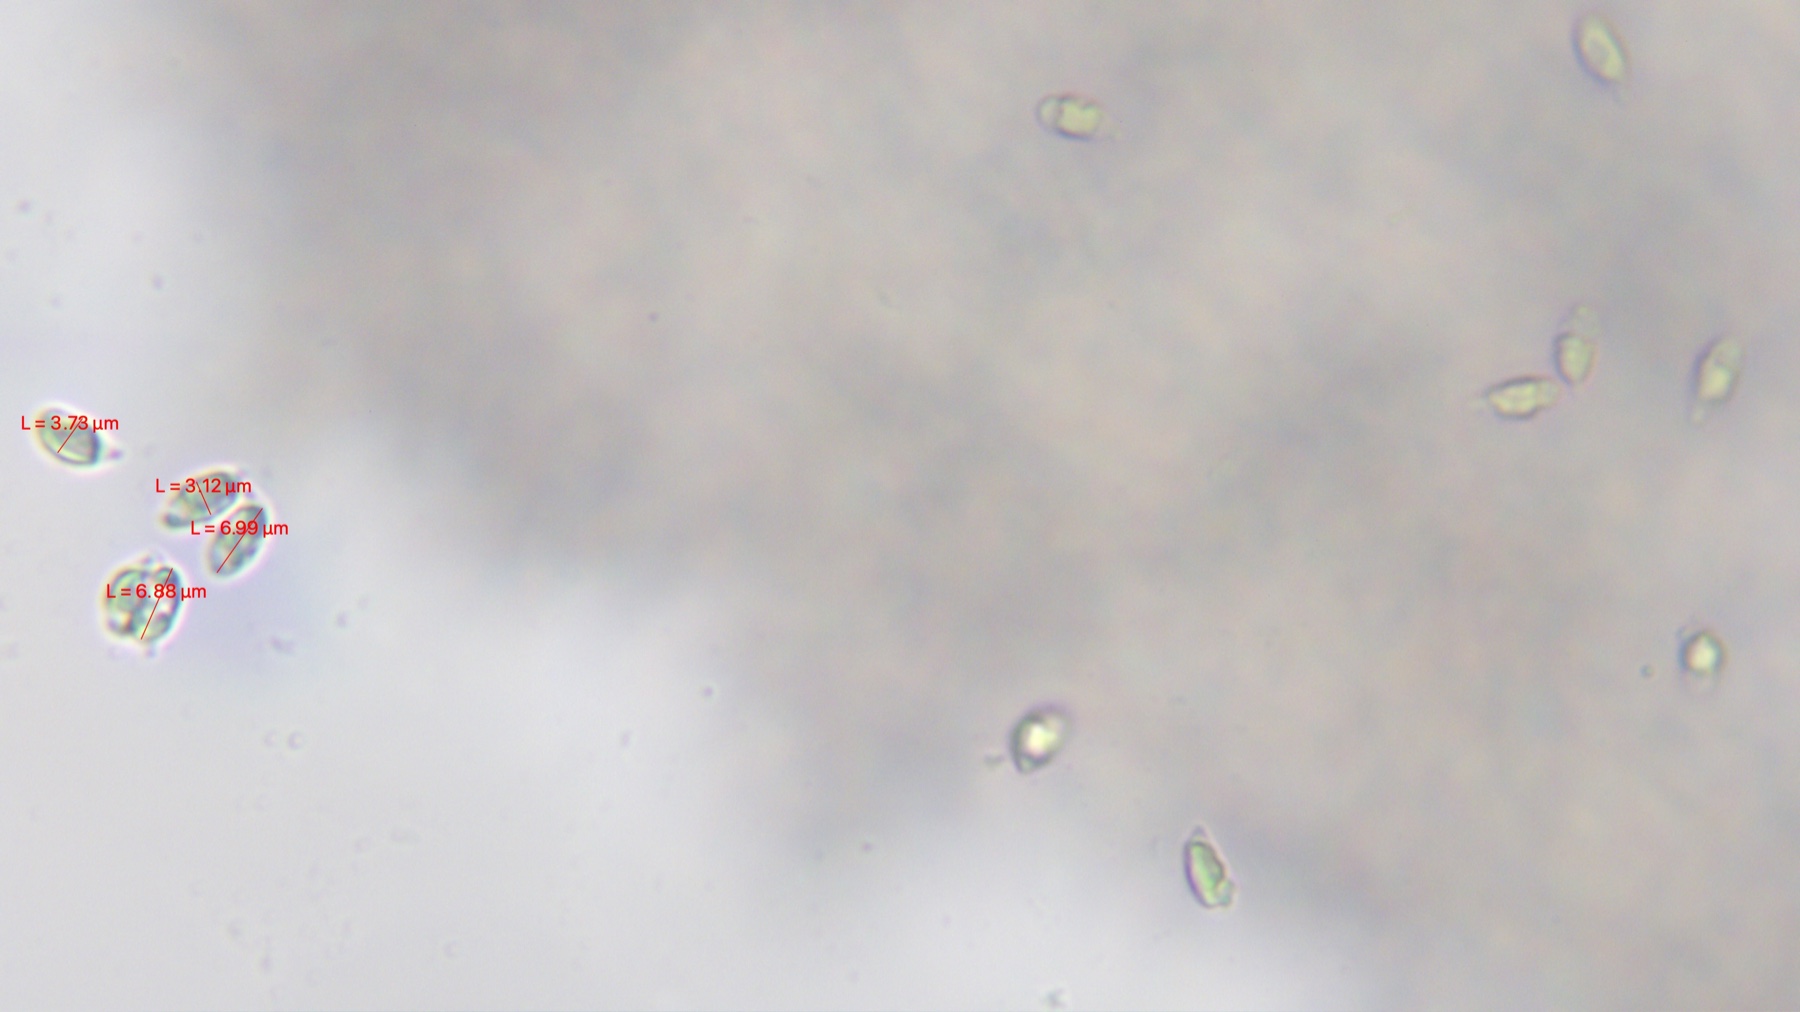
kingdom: Fungi
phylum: Basidiomycota
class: Agaricomycetes
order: Agaricales
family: Mycenaceae
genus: Hemimycena
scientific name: Hemimycena
